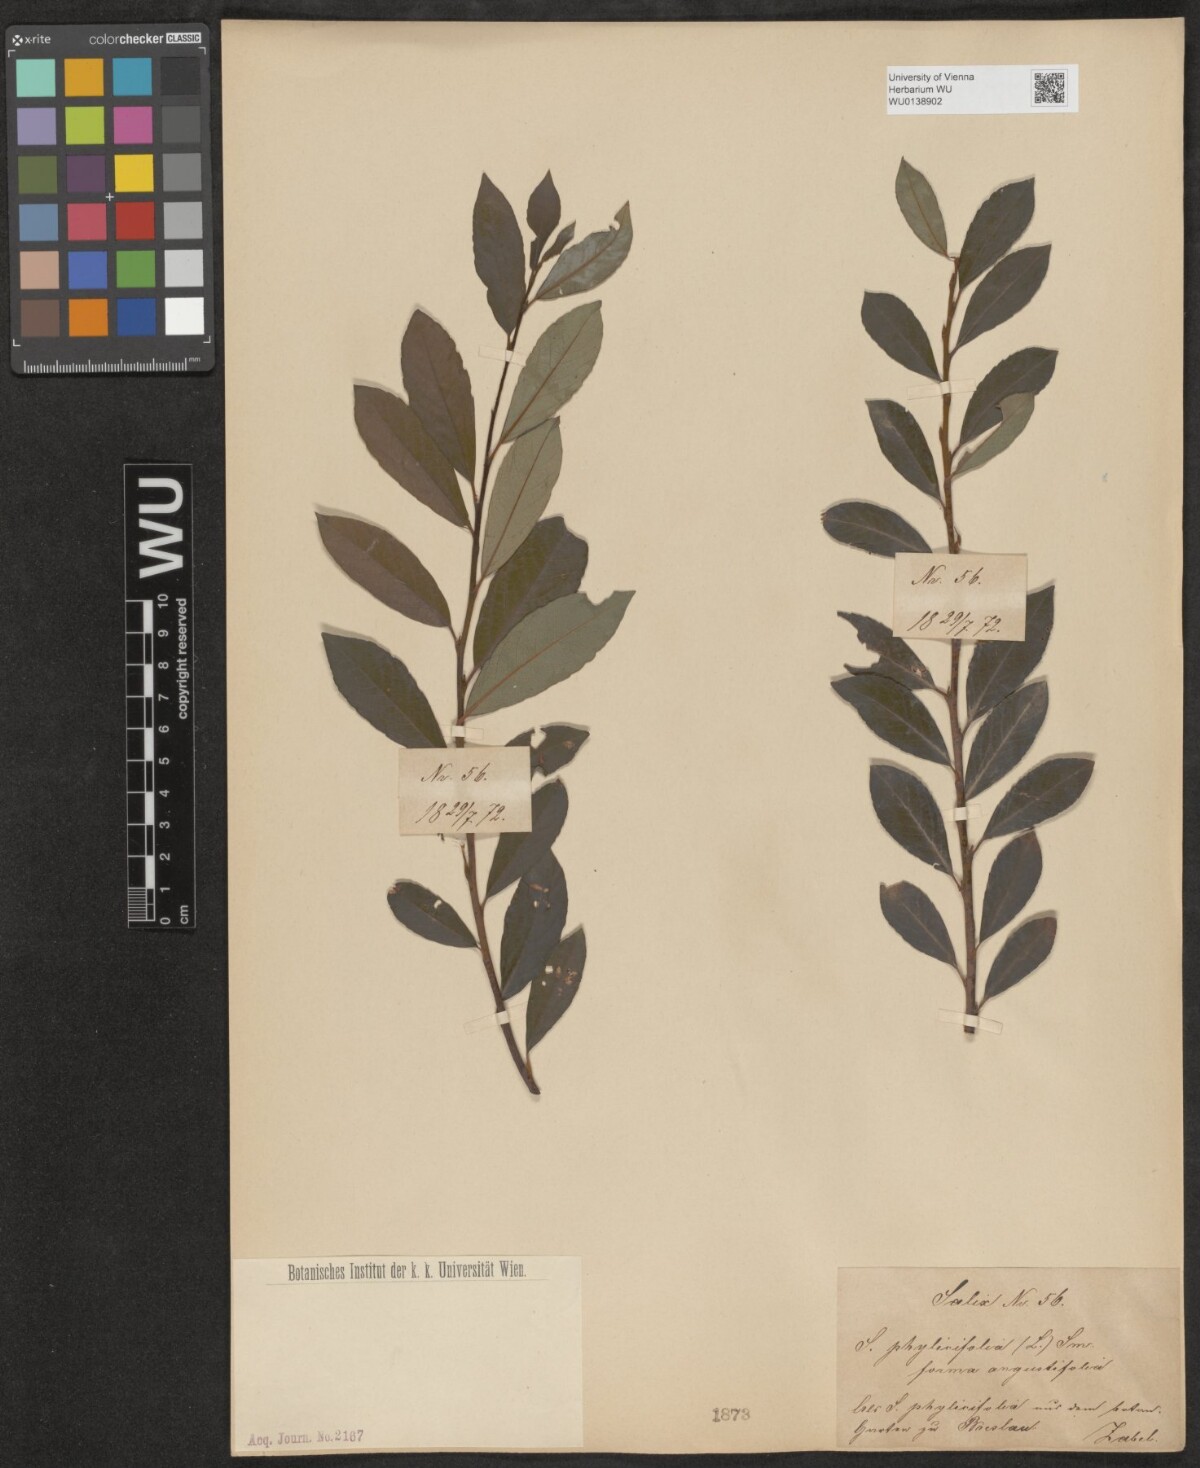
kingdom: Plantae
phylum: Tracheophyta
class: Magnoliopsida
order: Malpighiales
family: Salicaceae
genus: Salix
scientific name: Salix phylicifolia
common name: Tea-leaved willow
